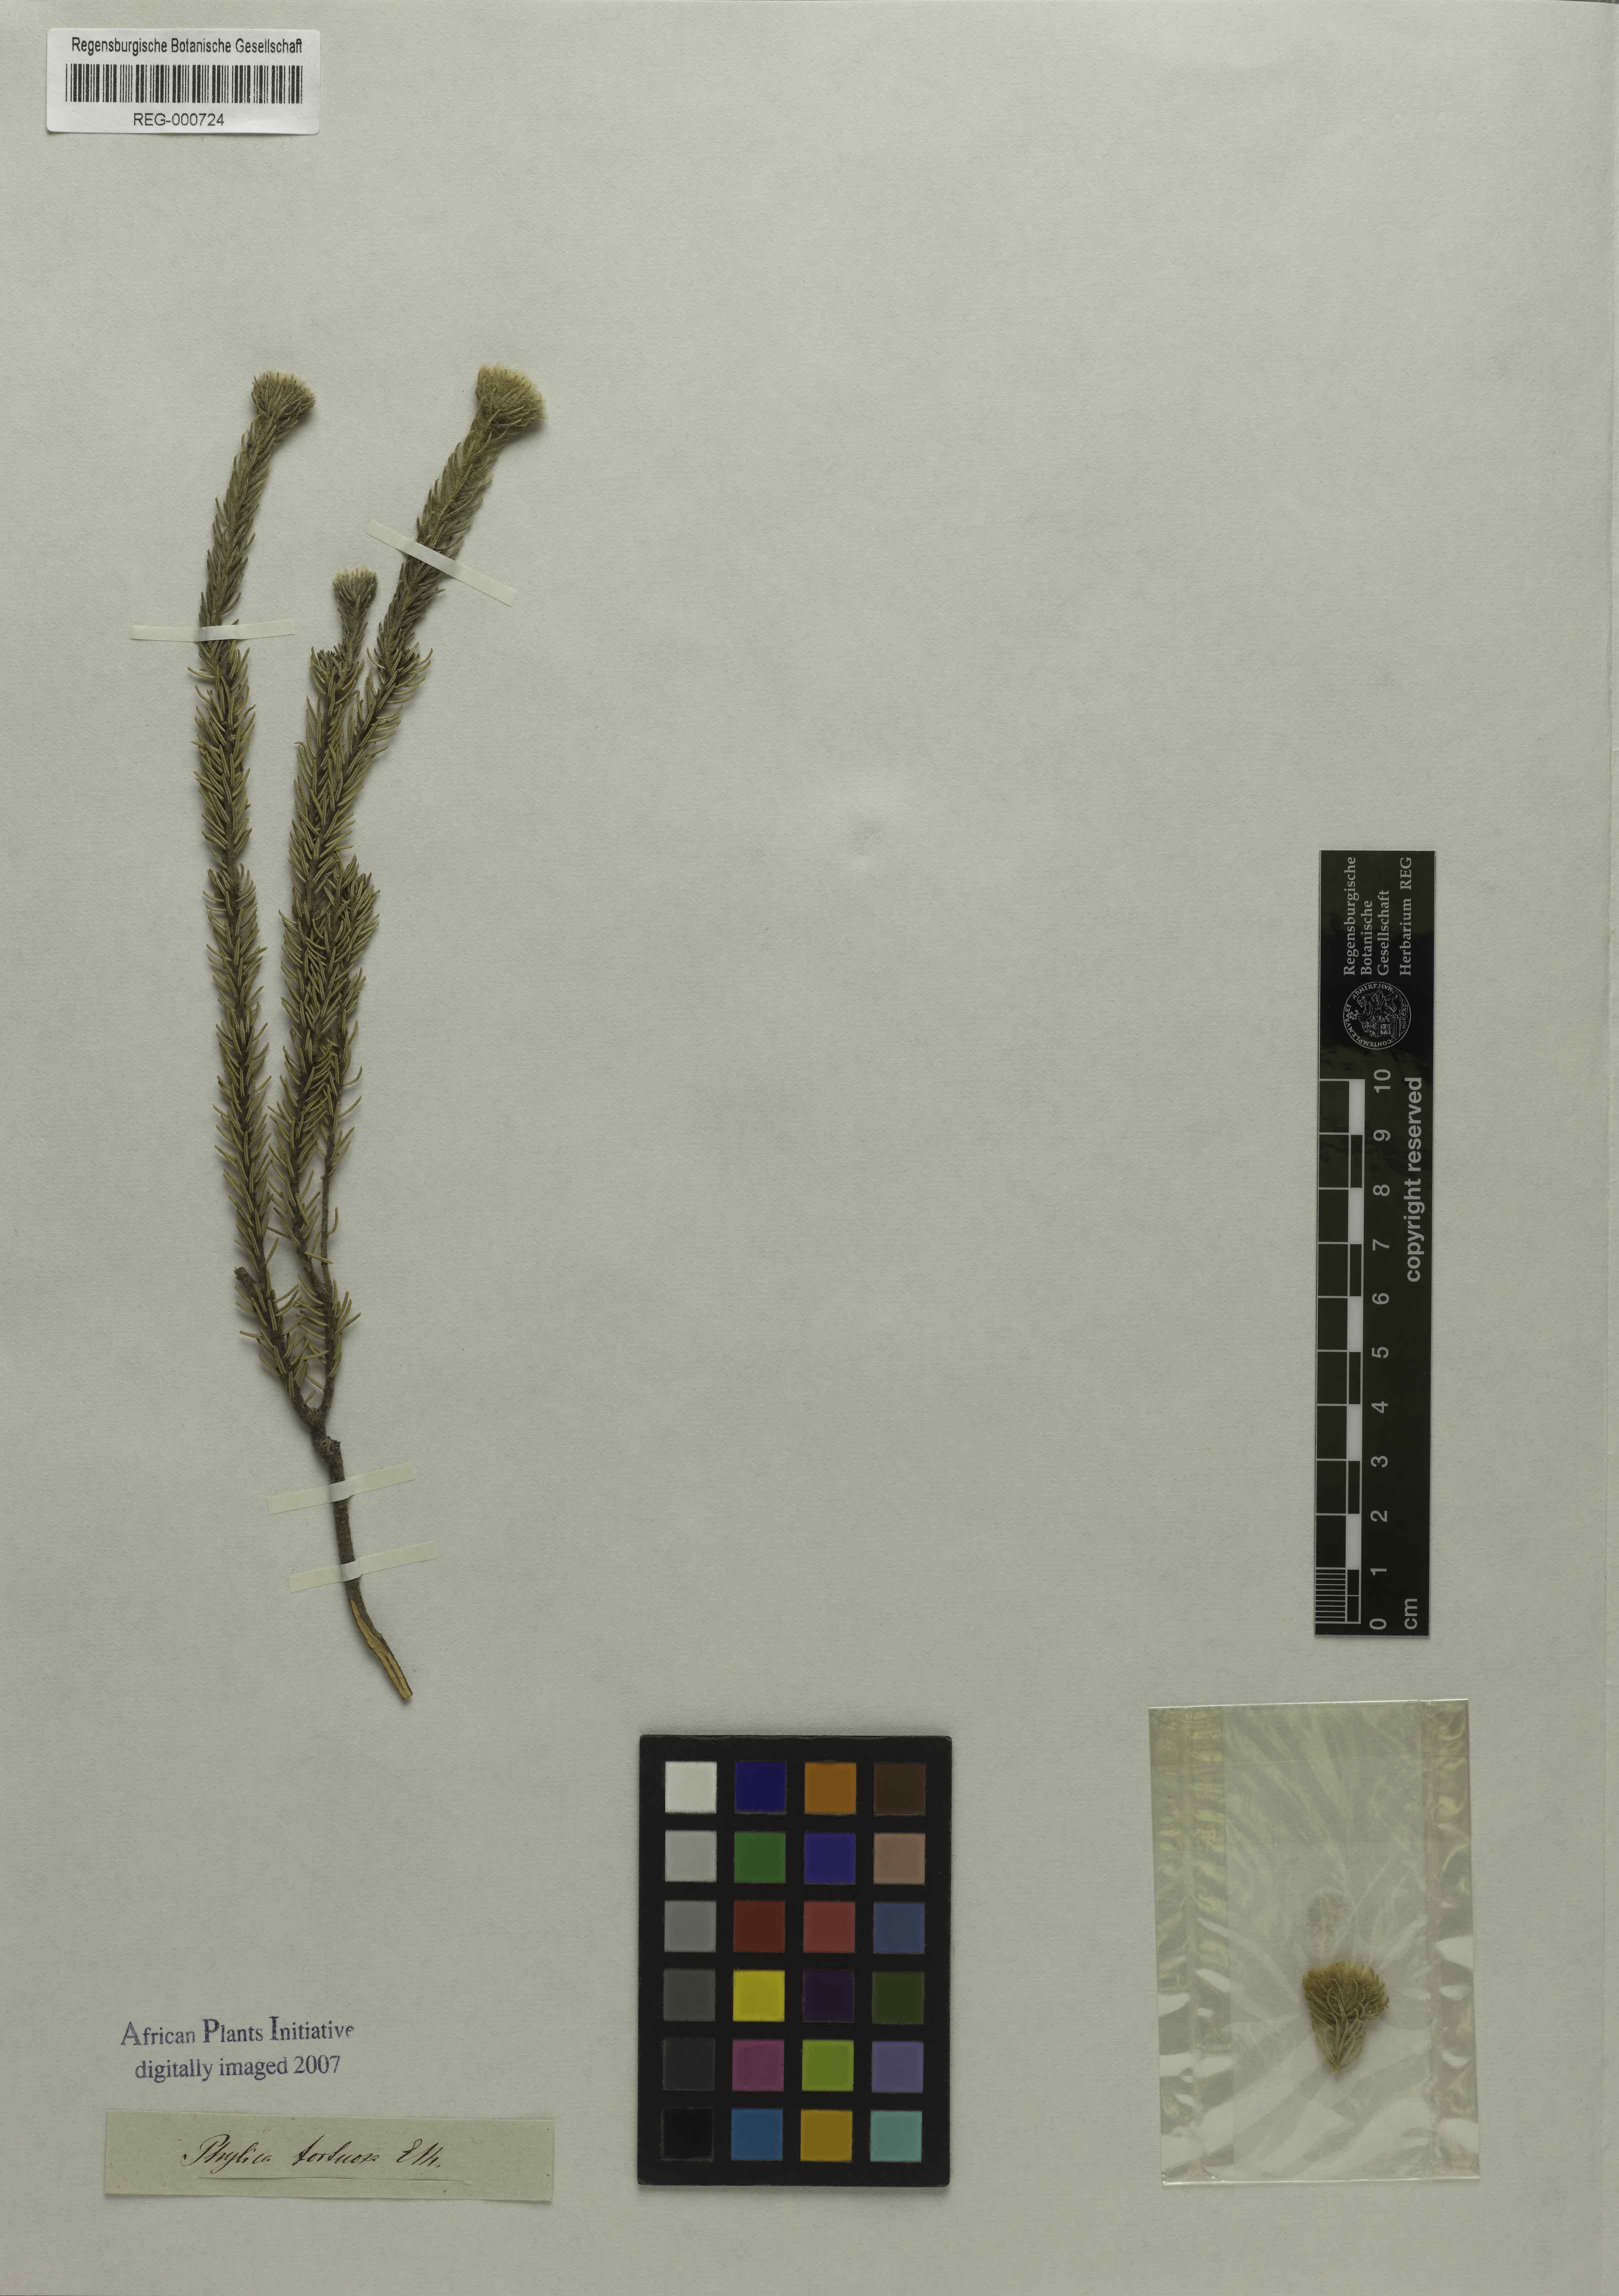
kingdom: Plantae
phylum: Tracheophyta
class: Magnoliopsida
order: Rosales
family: Rhamnaceae
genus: Phylica
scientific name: Phylica tortuosa
